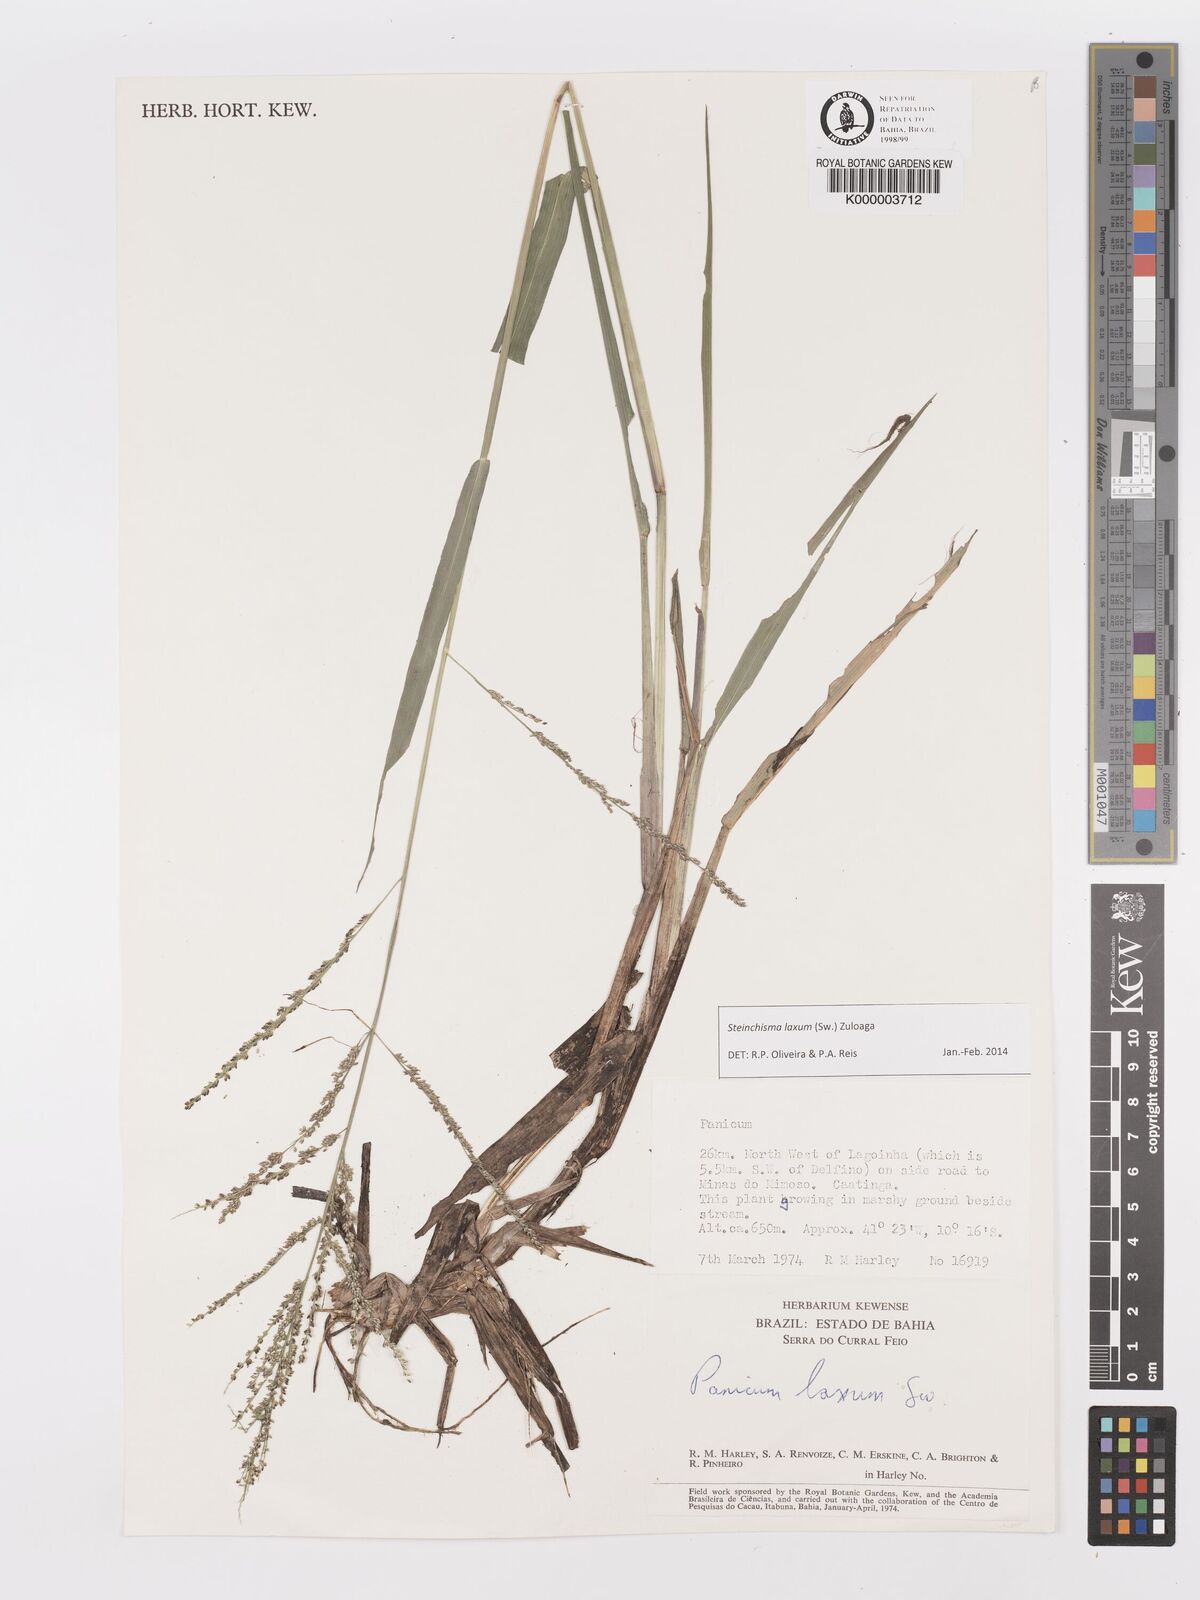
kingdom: Plantae
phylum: Tracheophyta
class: Liliopsida
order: Poales
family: Poaceae
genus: Panicum
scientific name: Panicum
